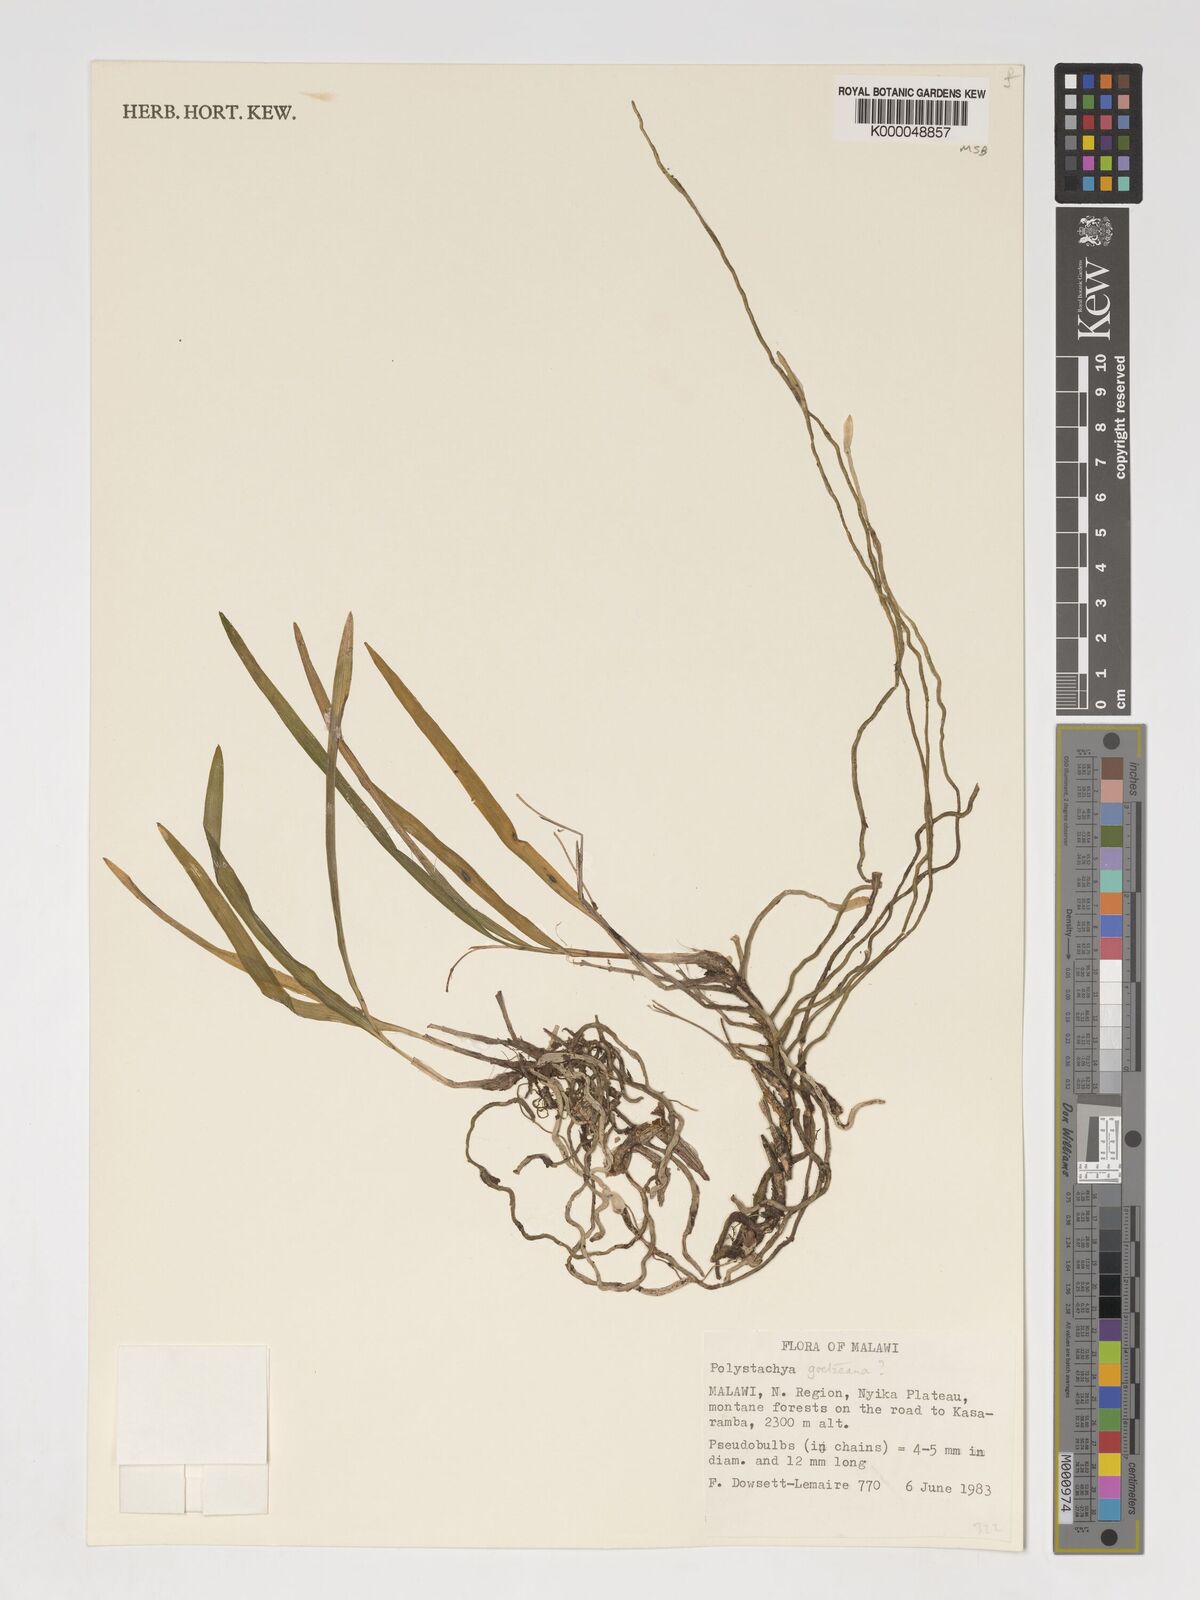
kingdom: Plantae
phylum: Tracheophyta
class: Liliopsida
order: Asparagales
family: Orchidaceae
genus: Polystachya
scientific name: Polystachya goetzeana
